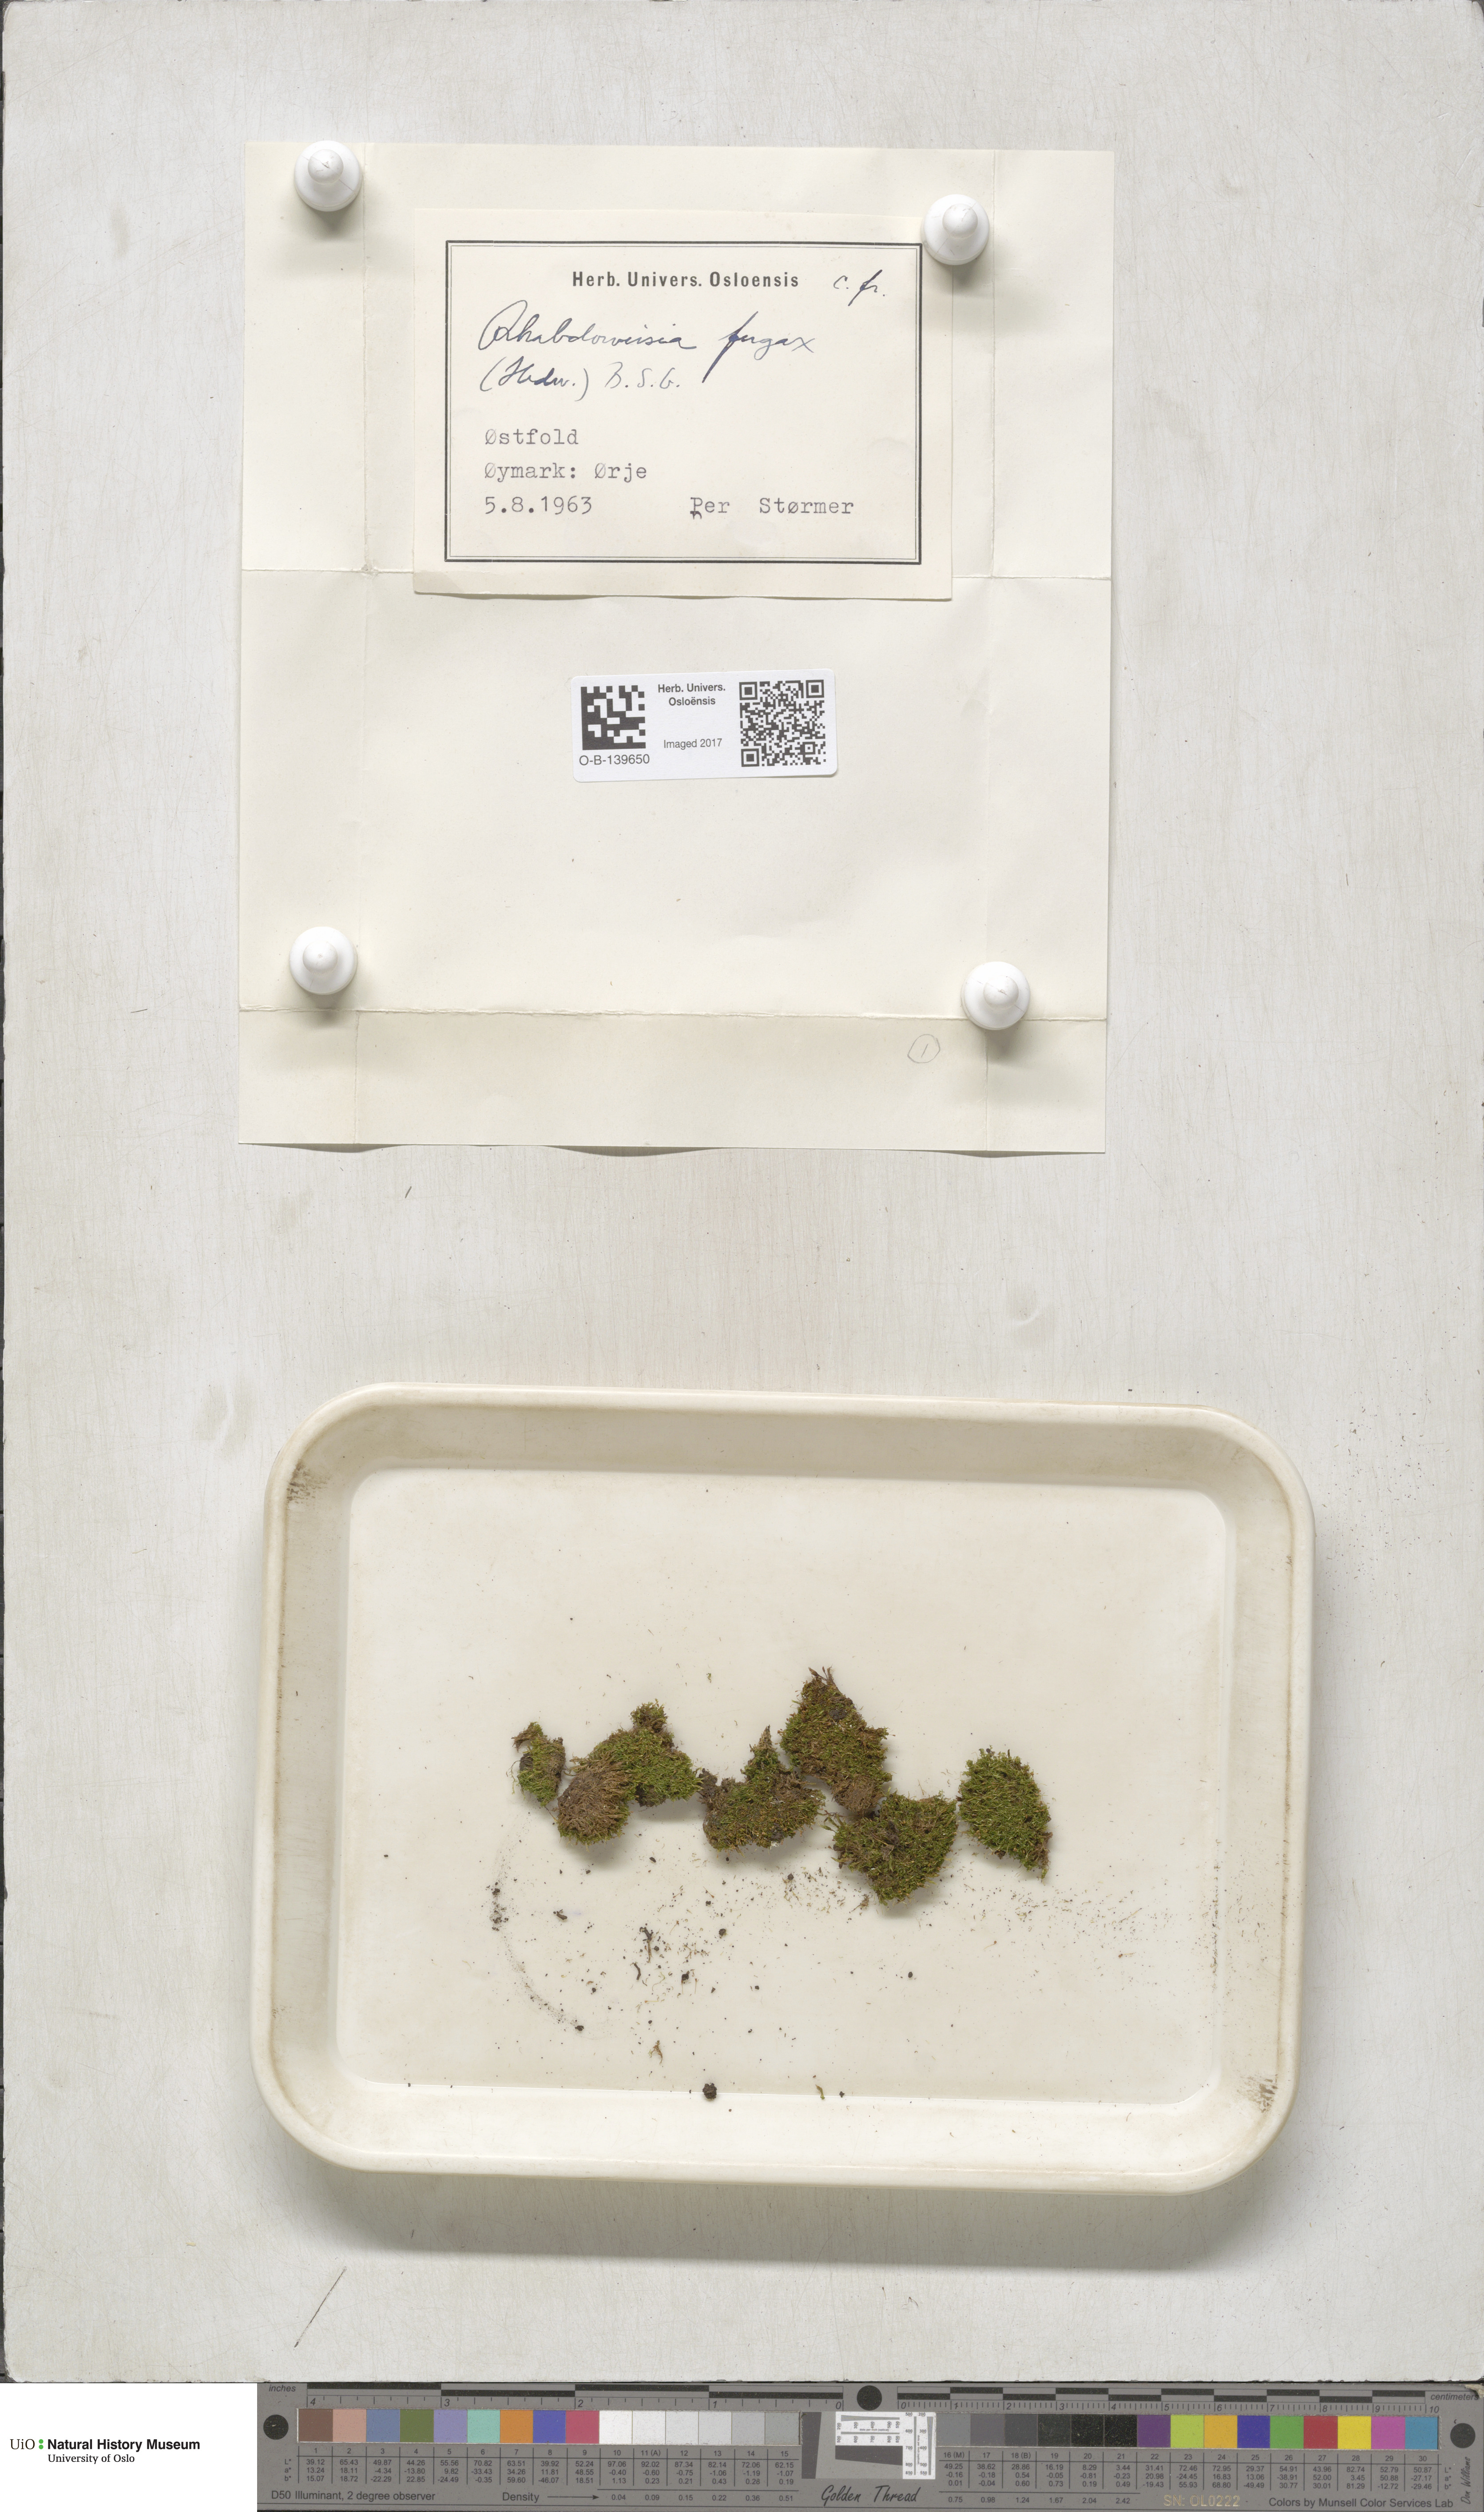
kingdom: Plantae
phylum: Bryophyta
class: Bryopsida
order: Dicranales
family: Rhabdoweisiaceae
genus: Rhabdoweisia
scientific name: Rhabdoweisia fugax
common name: Dwarf streak-moss
